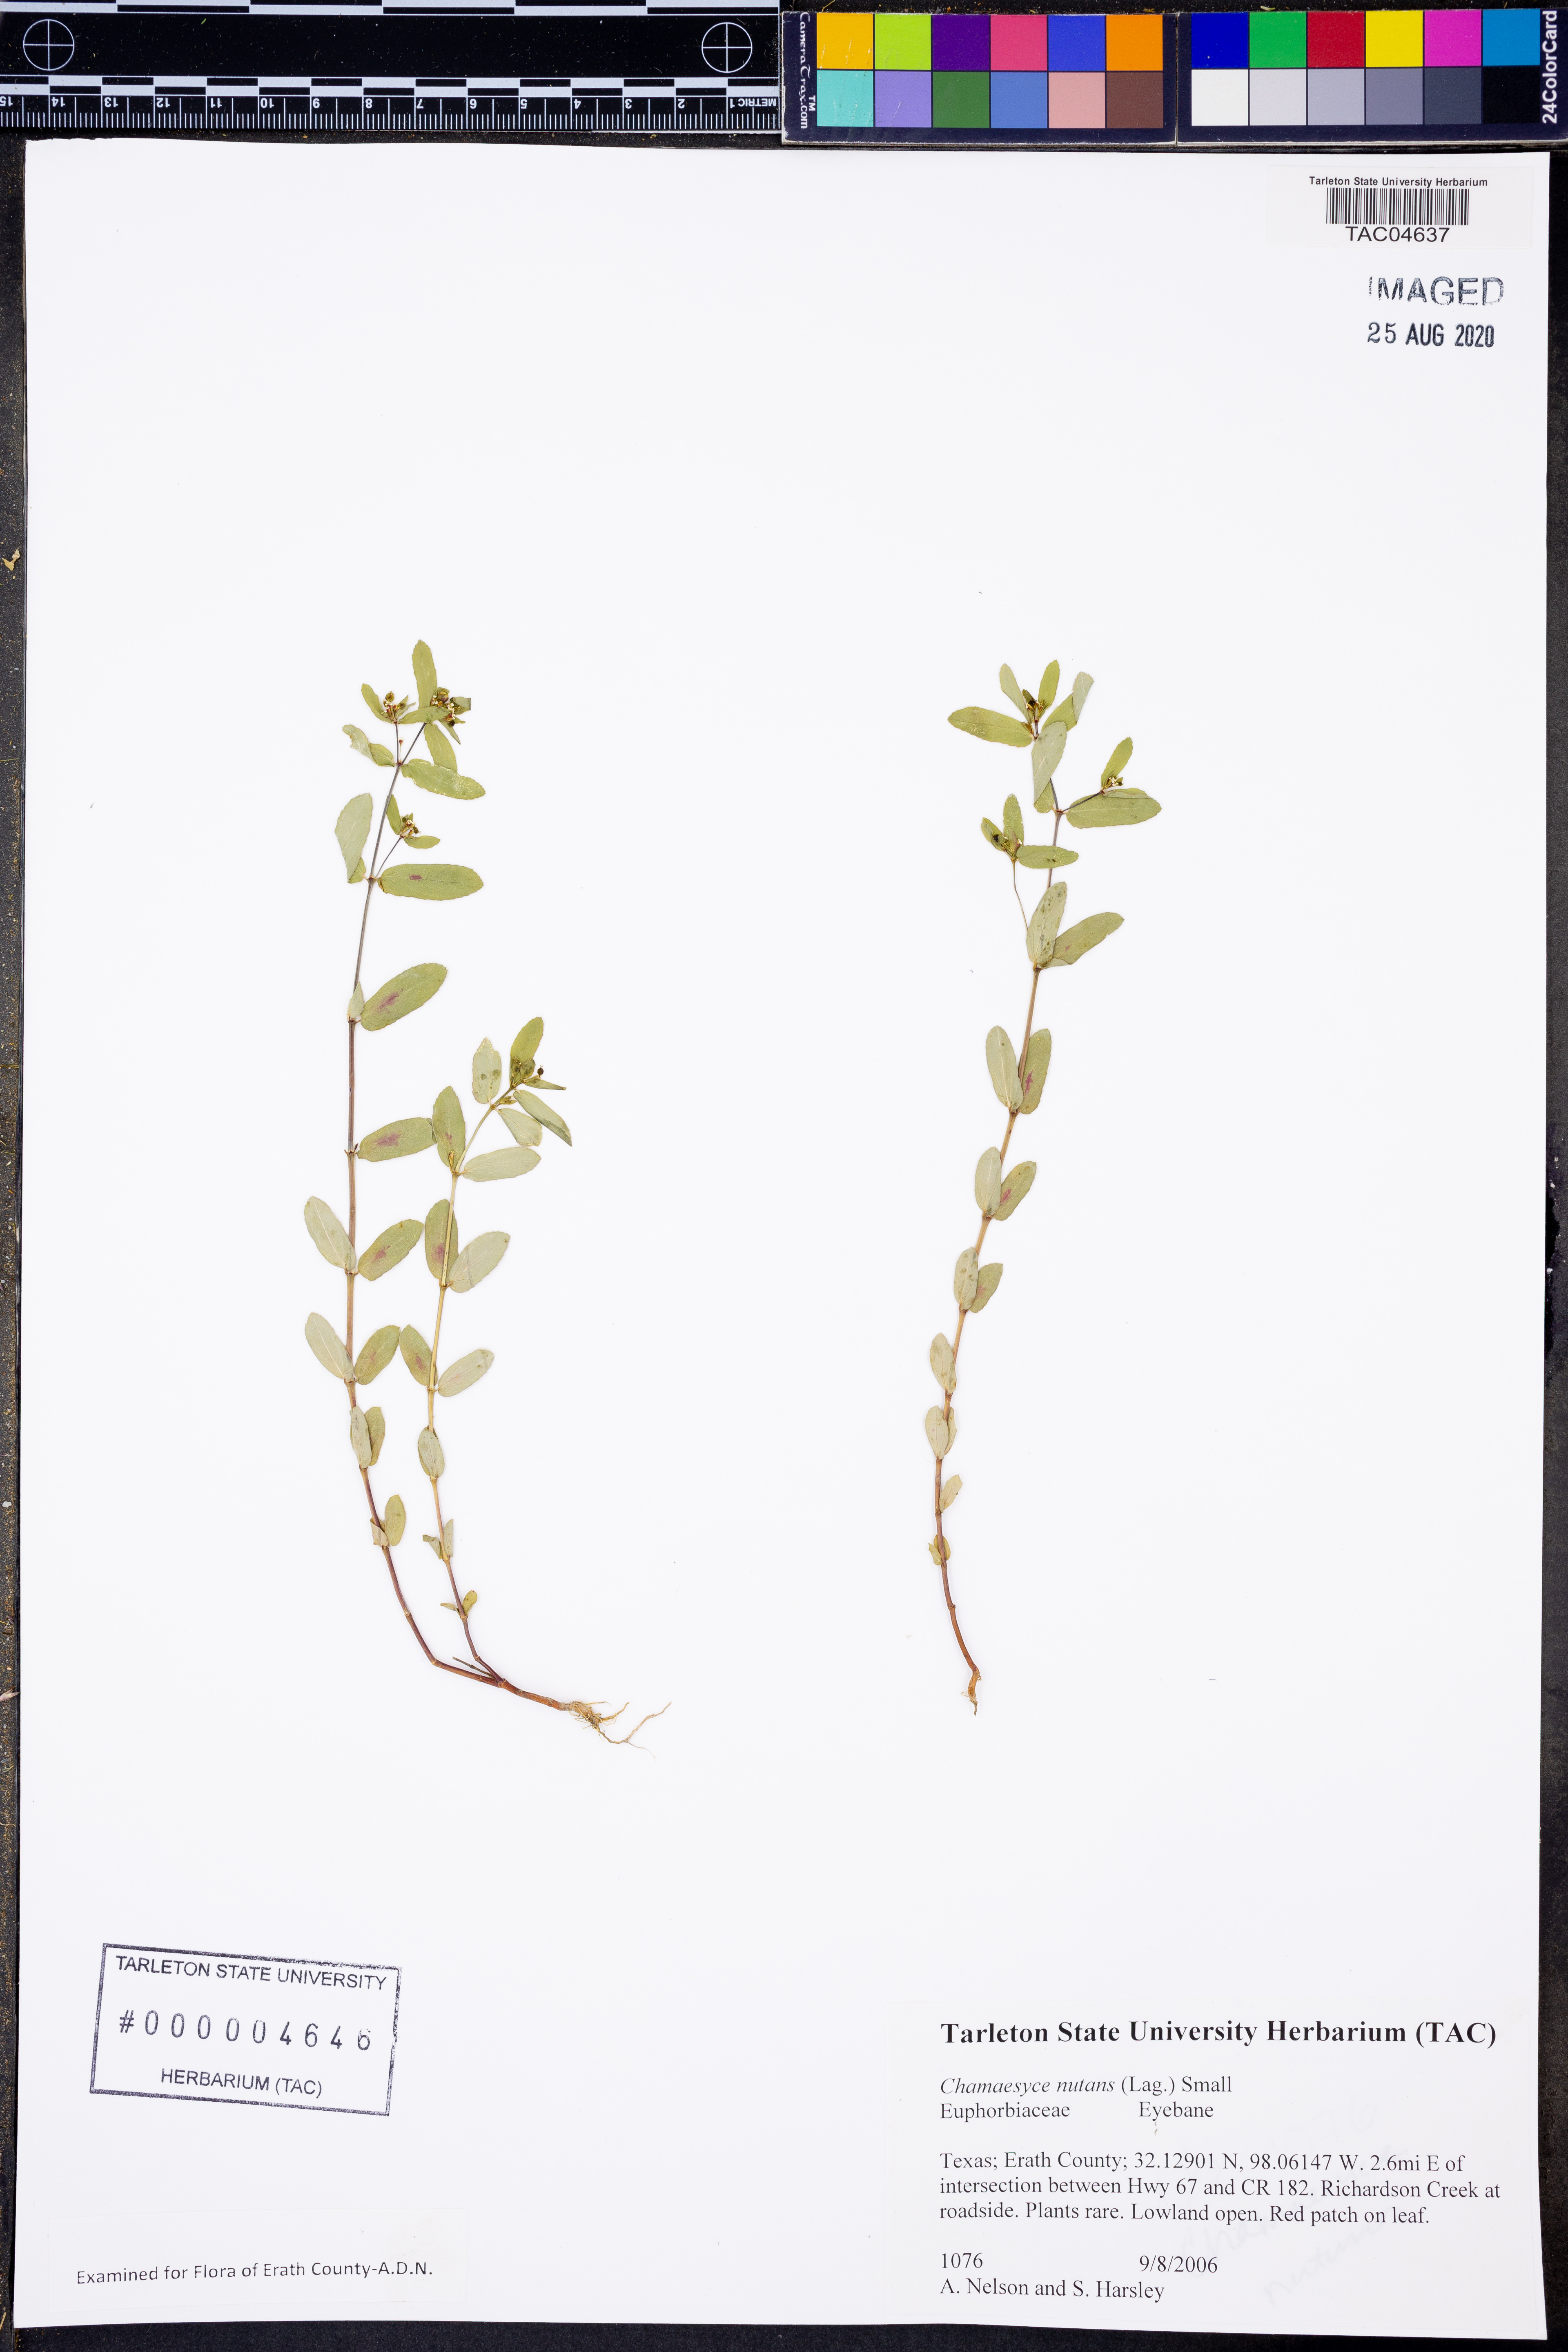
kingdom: Plantae
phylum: Tracheophyta
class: Magnoliopsida
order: Malpighiales
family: Euphorbiaceae
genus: Euphorbia
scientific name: Euphorbia nutans
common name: Eyebane
